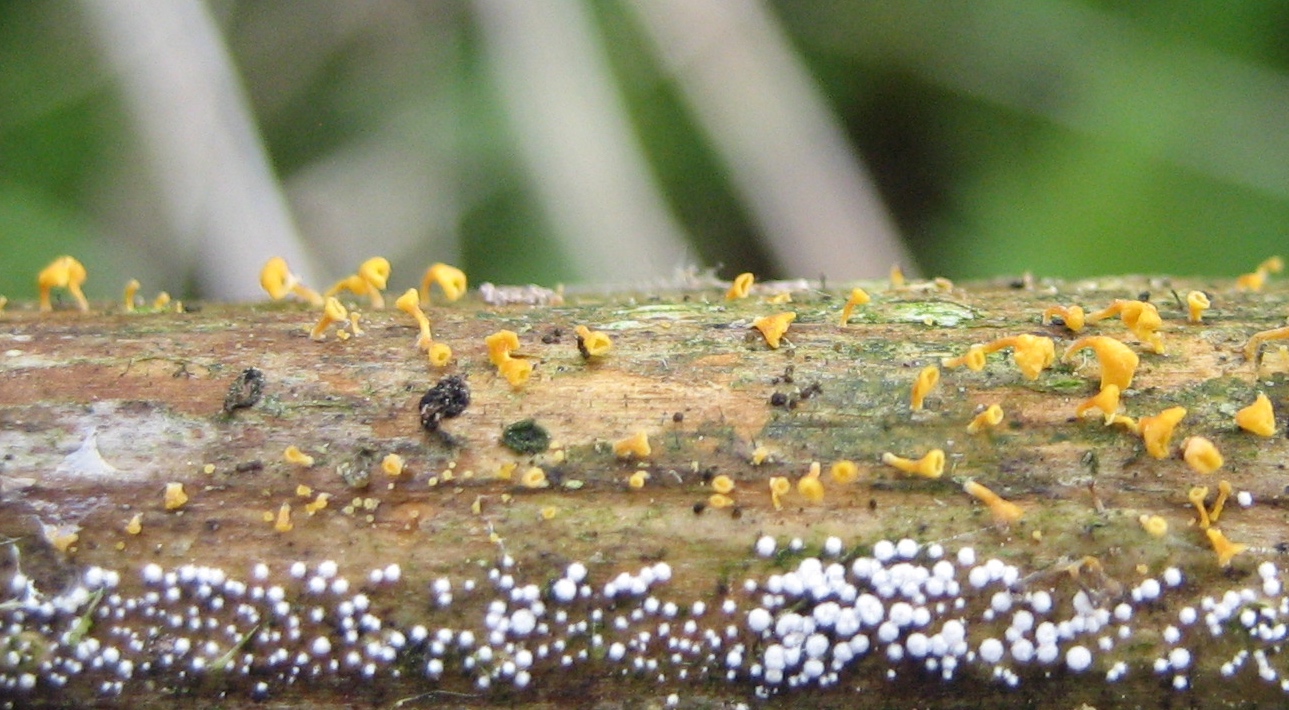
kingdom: Fungi
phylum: Basidiomycota
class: Agaricomycetes
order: Agaricales
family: Marasmiaceae
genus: Calyptella
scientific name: Calyptella campanula
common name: gul nældehue
